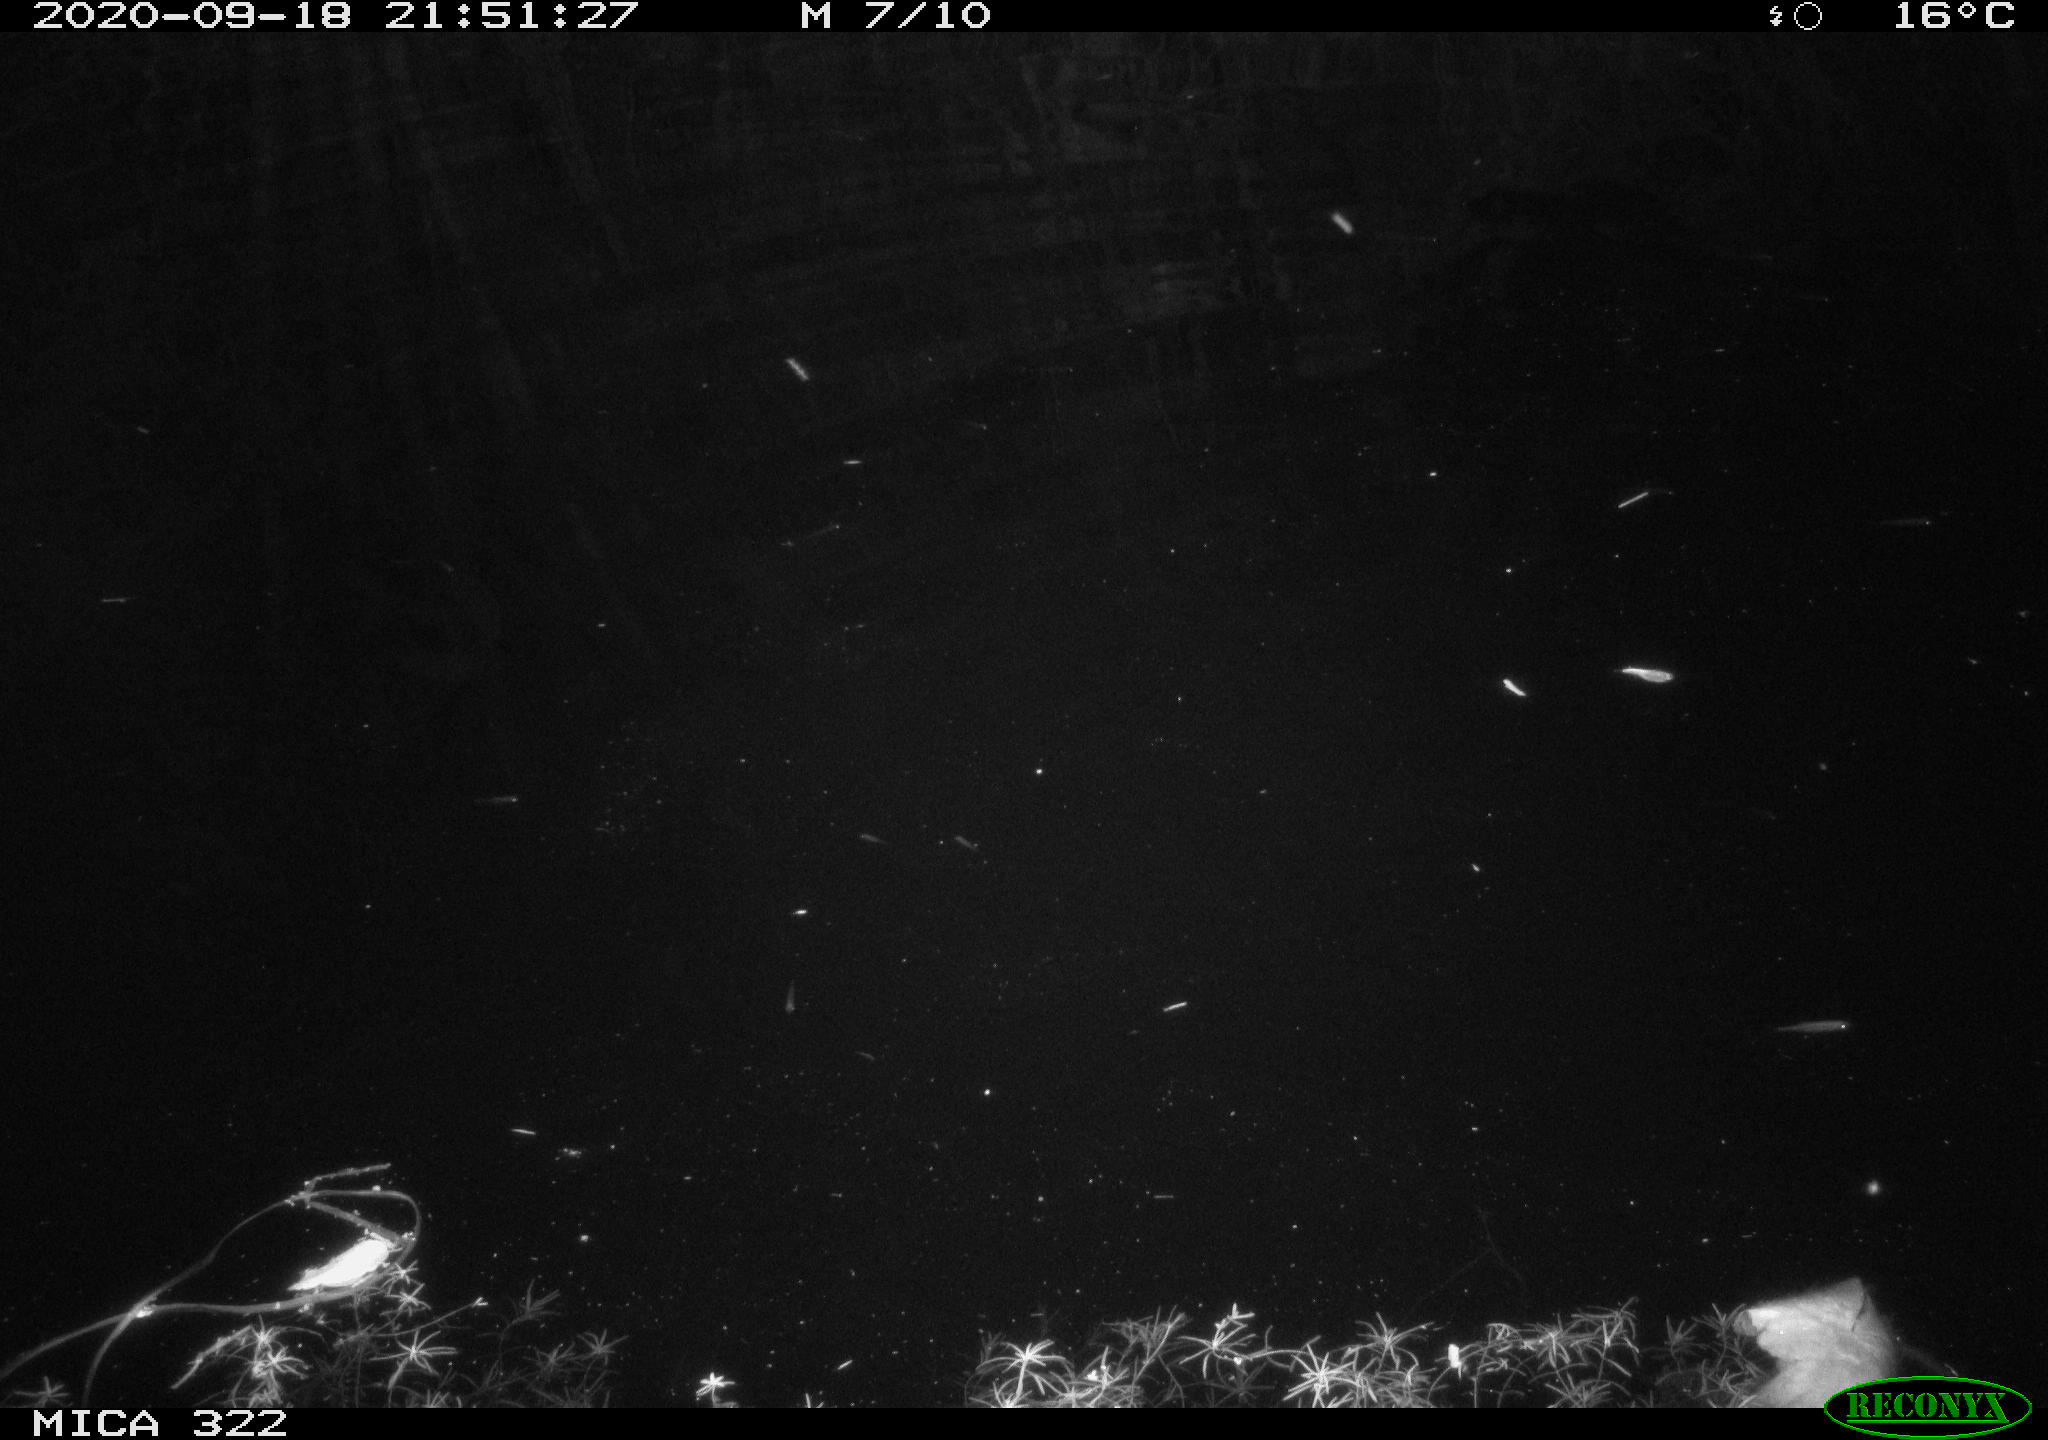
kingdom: Animalia
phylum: Chordata
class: Mammalia
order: Rodentia
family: Muridae
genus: Rattus
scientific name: Rattus norvegicus
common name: Brown rat
